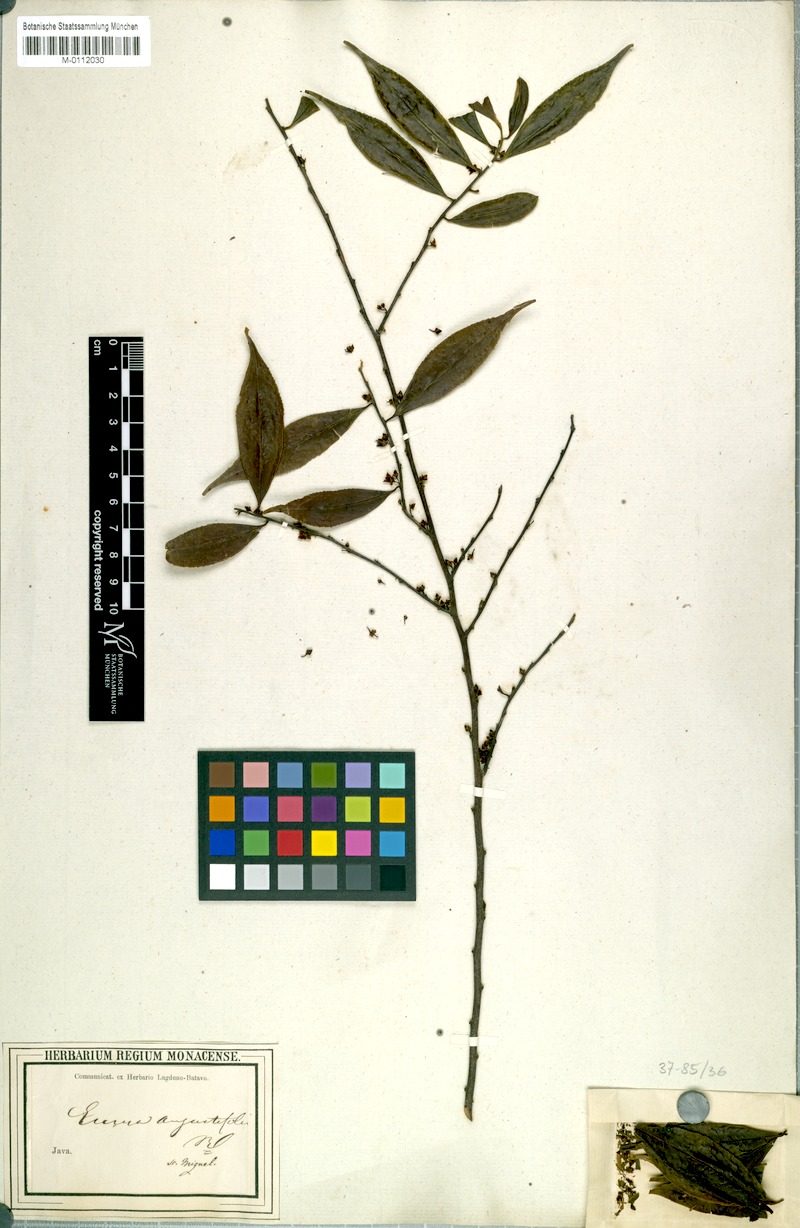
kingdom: Plantae
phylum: Tracheophyta
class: Magnoliopsida
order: Ericales
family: Pentaphylacaceae
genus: Eurya
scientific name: Eurya acuminata
